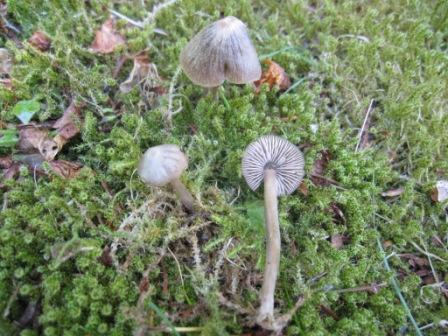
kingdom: Fungi
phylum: Basidiomycota
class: Agaricomycetes
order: Agaricales
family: Entolomataceae
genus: Entoloma
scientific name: Entoloma vernum
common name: vår-rødblad
